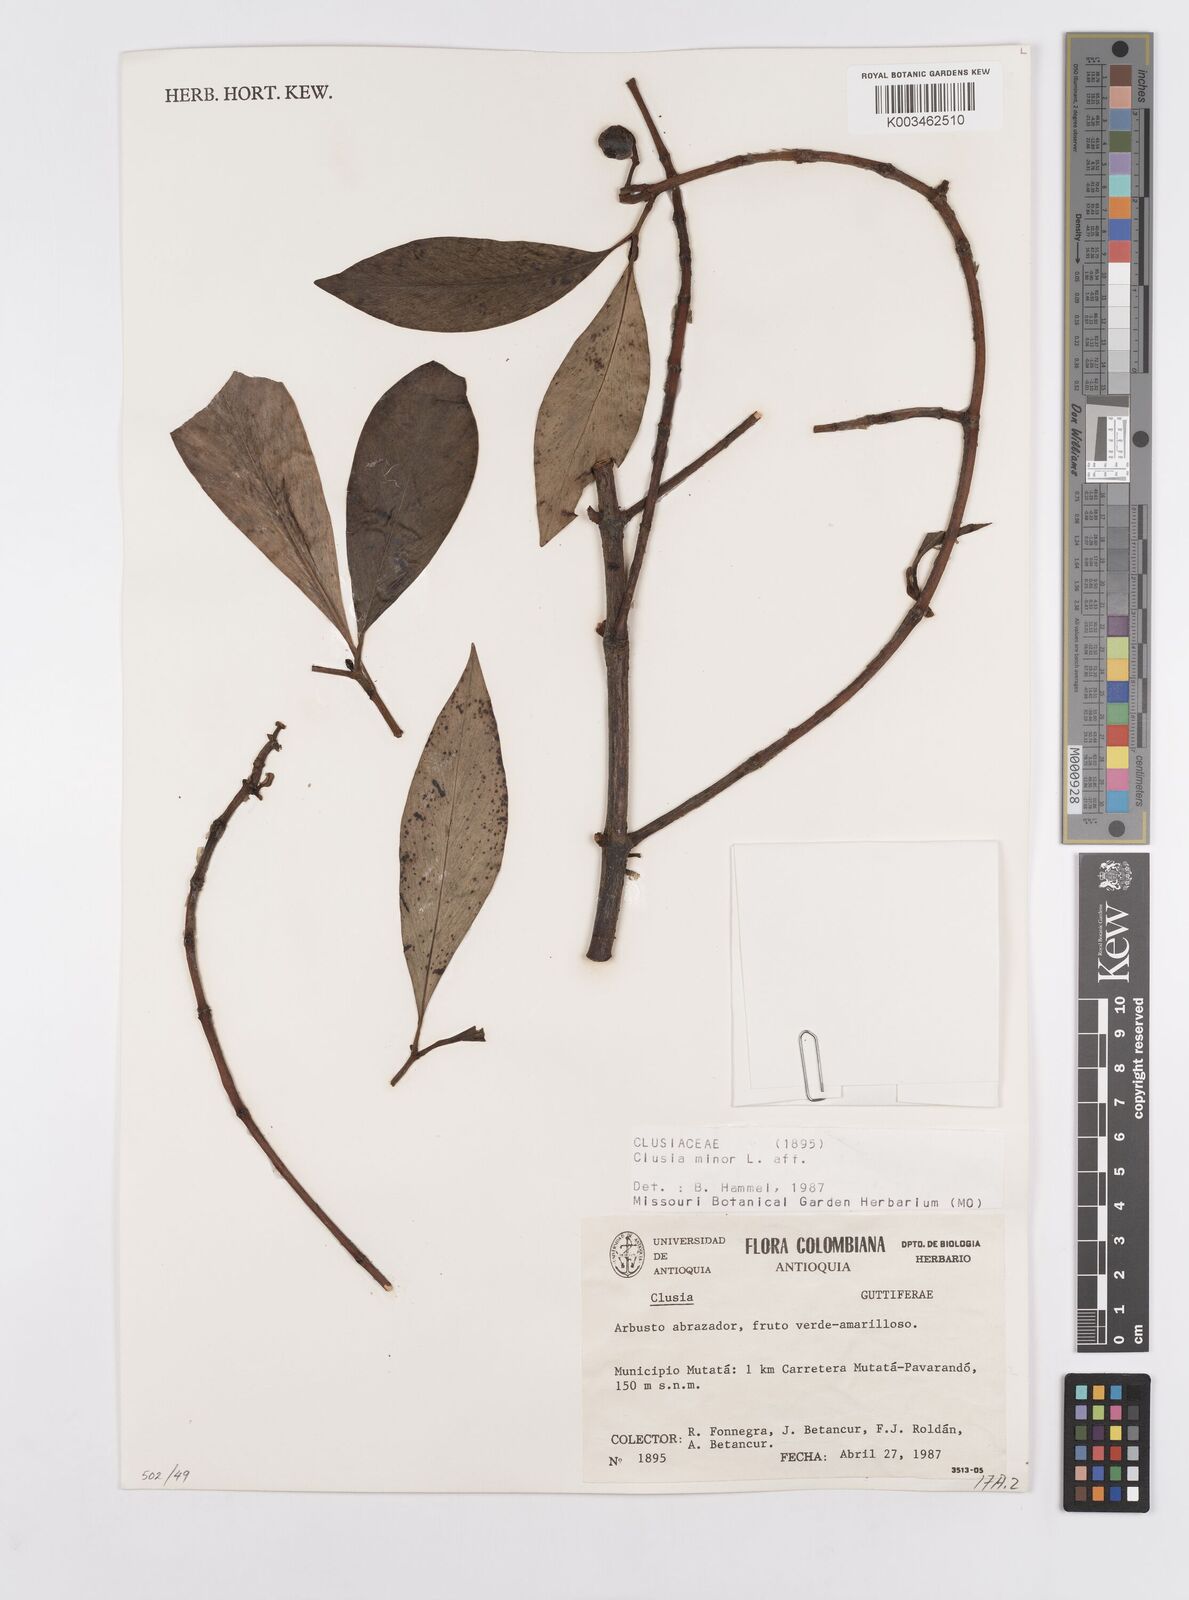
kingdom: Plantae
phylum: Tracheophyta
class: Magnoliopsida
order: Malpighiales
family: Clusiaceae
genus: Clusia
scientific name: Clusia minor
